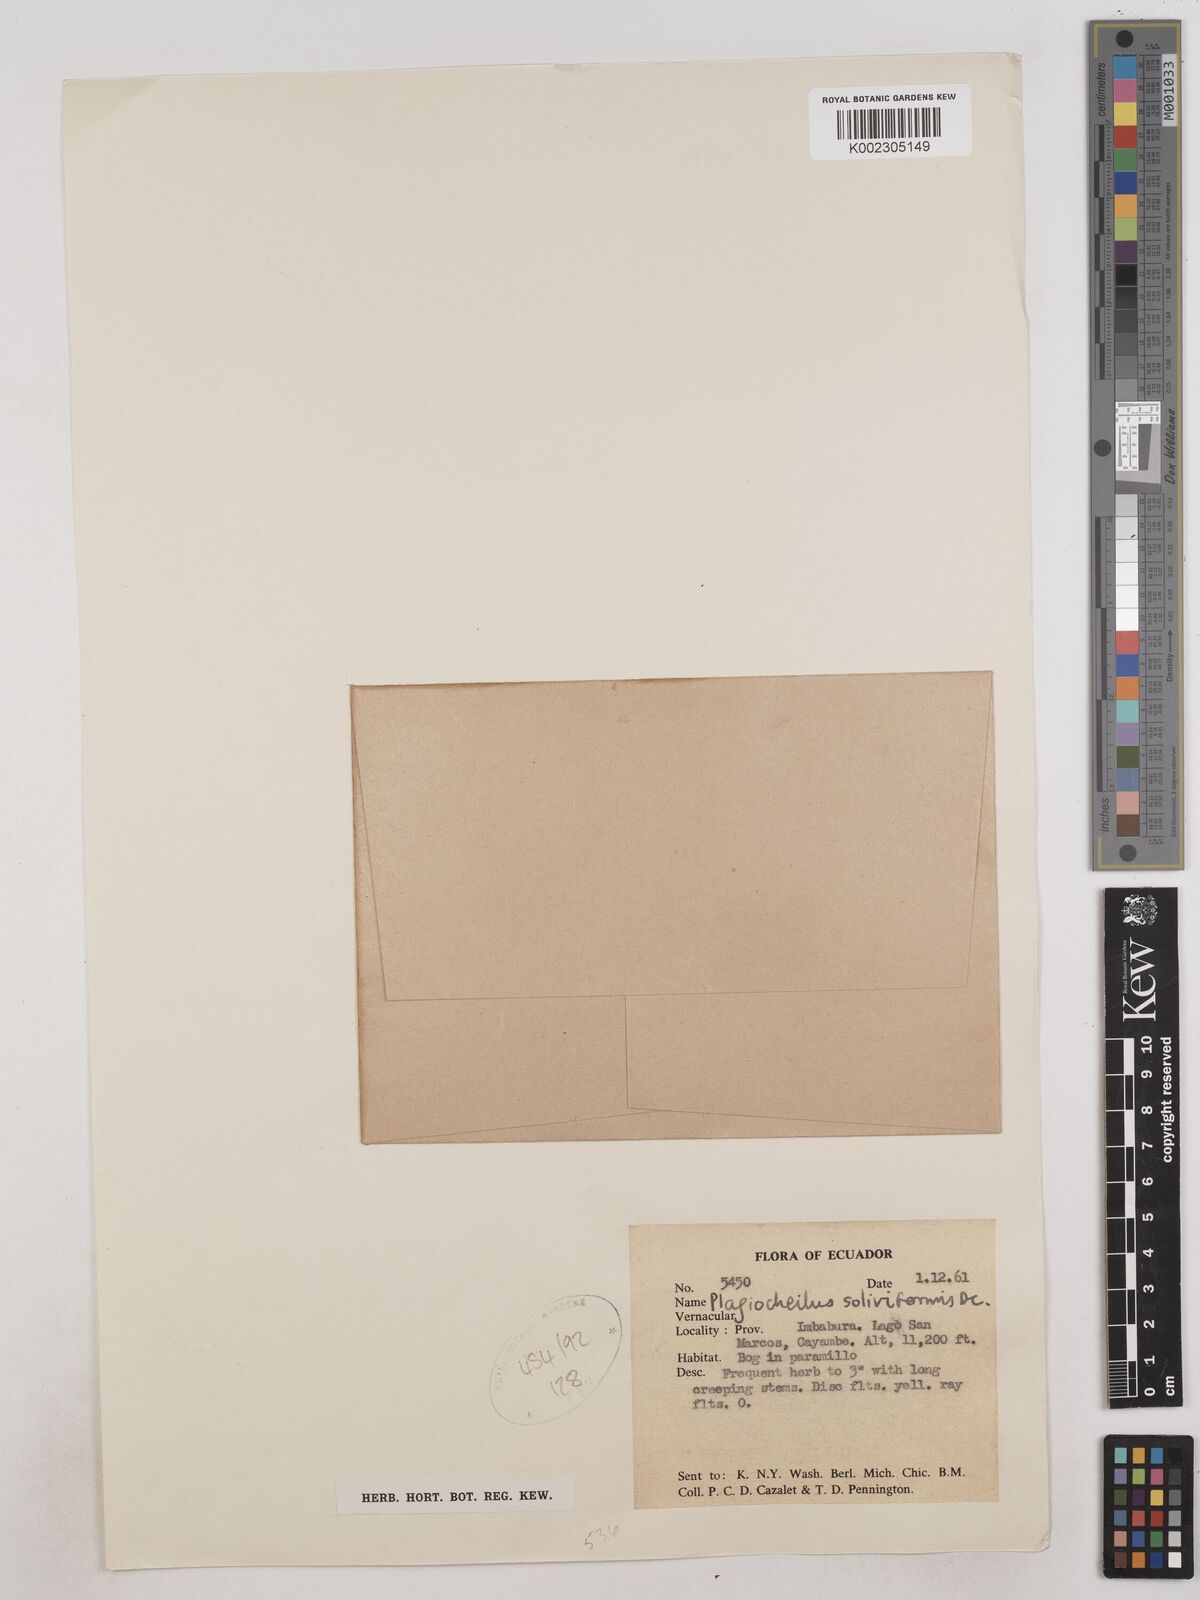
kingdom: Plantae
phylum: Tracheophyta
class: Magnoliopsida
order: Asterales
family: Asteraceae
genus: Plagiocheilus
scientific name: Plagiocheilus soliviformis
